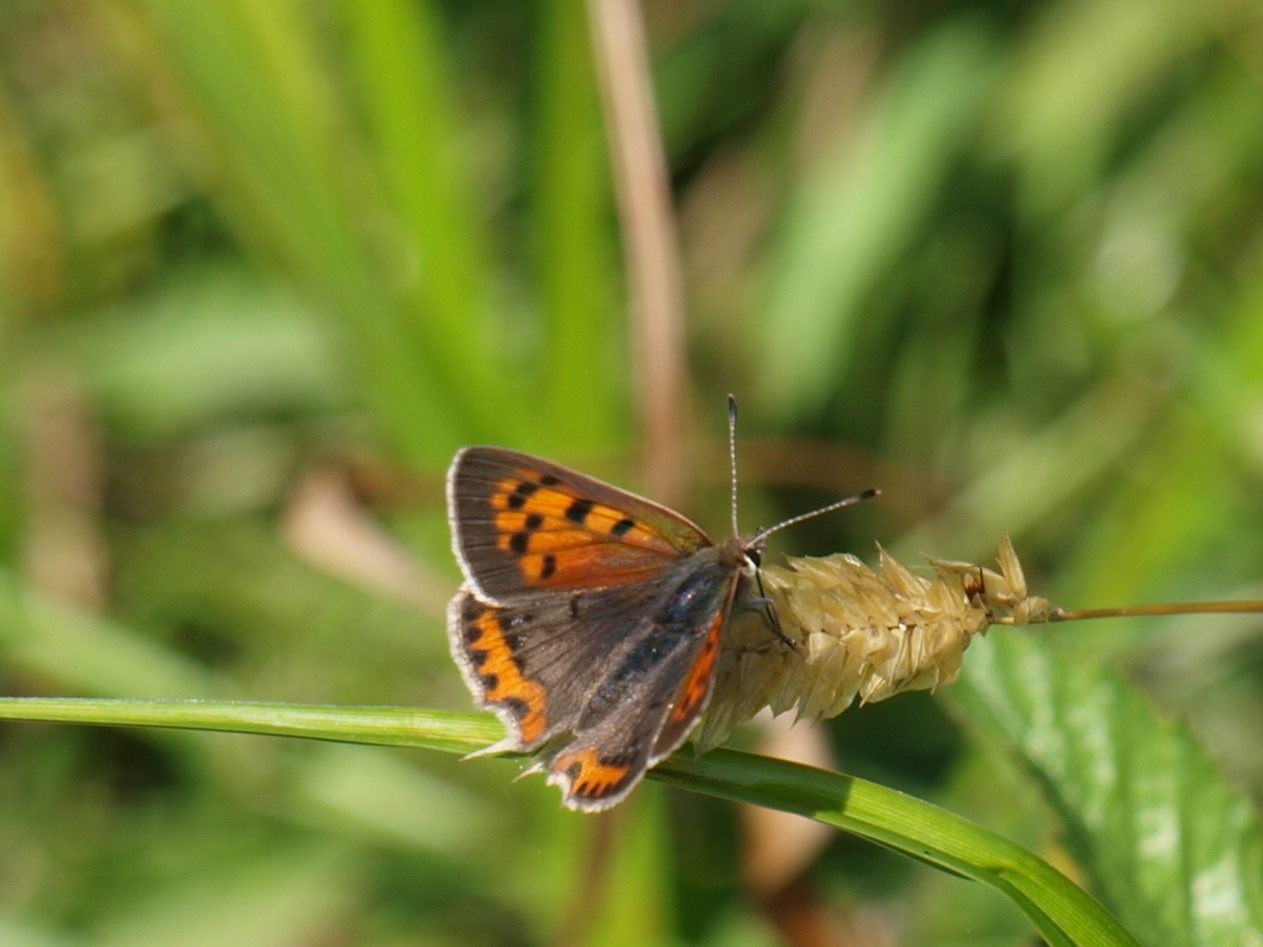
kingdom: Animalia
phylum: Arthropoda
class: Insecta
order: Lepidoptera
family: Lycaenidae
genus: Lycaena
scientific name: Lycaena phlaeas
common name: Lille ildfugl
